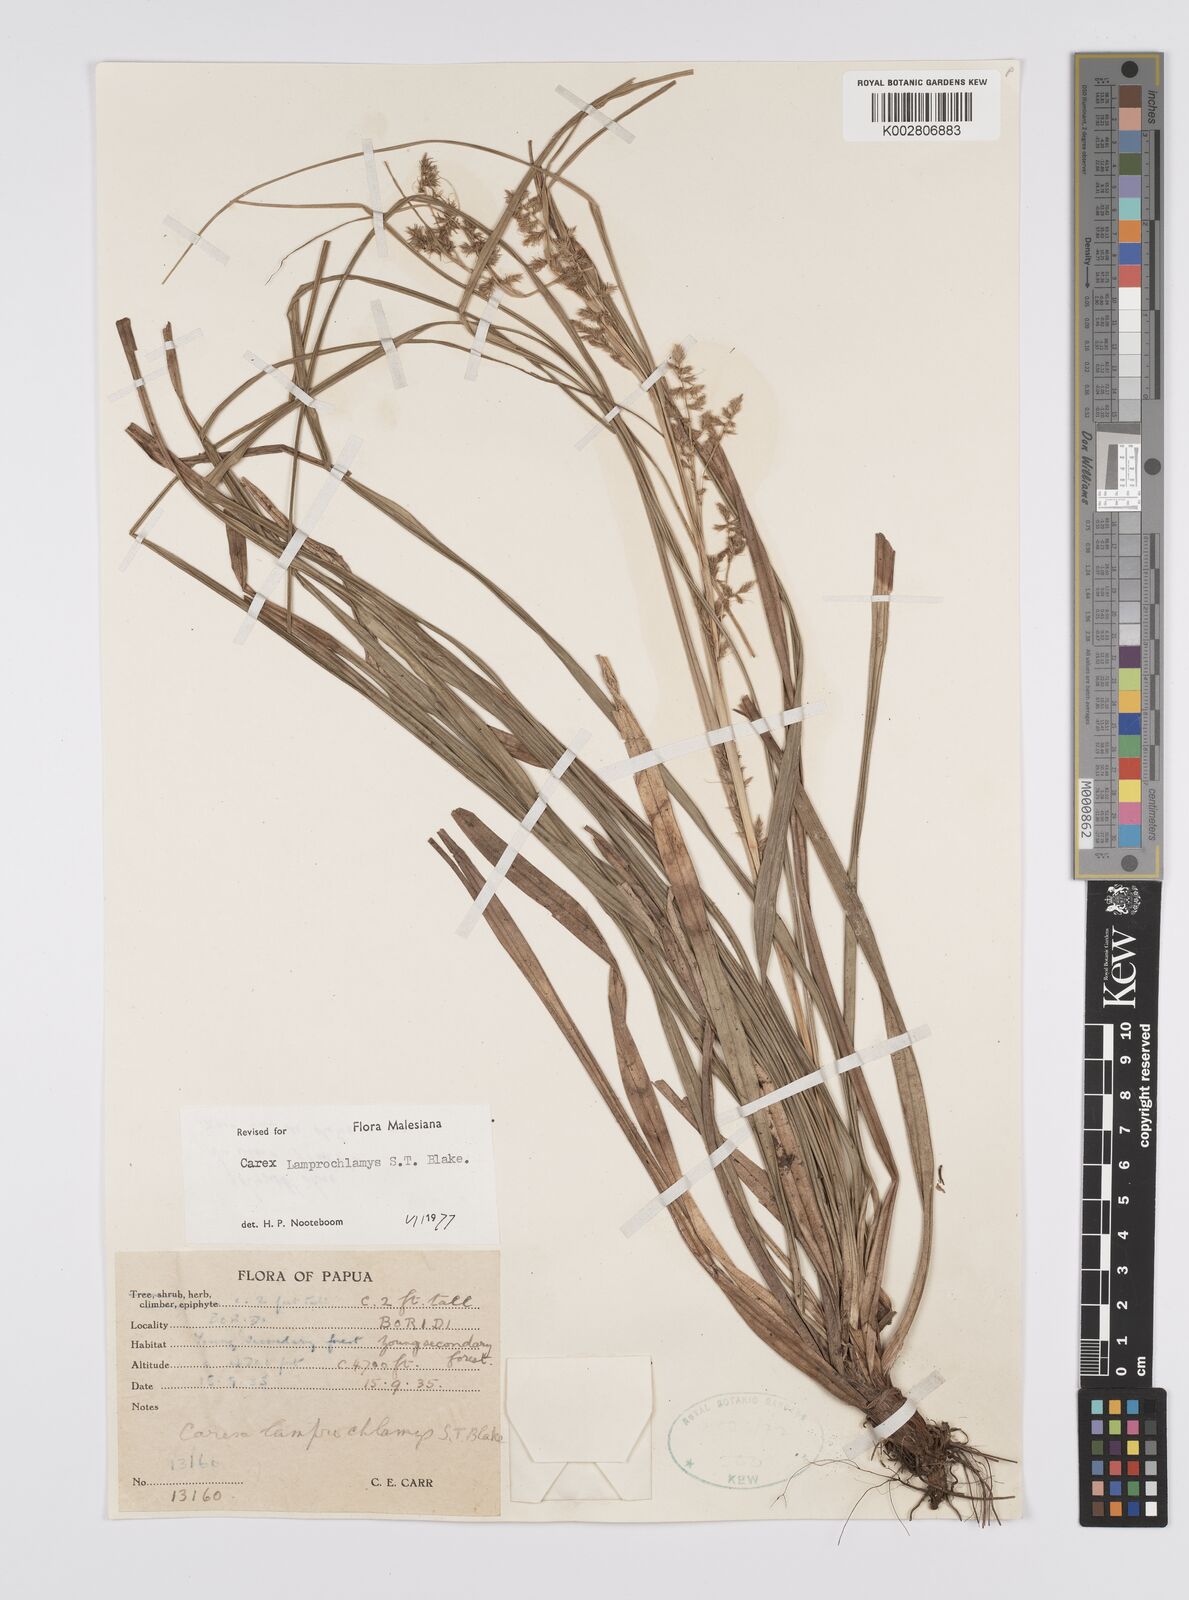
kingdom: Plantae
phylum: Tracheophyta
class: Liliopsida
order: Poales
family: Cyperaceae
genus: Carex
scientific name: Carex lamprochlamys
